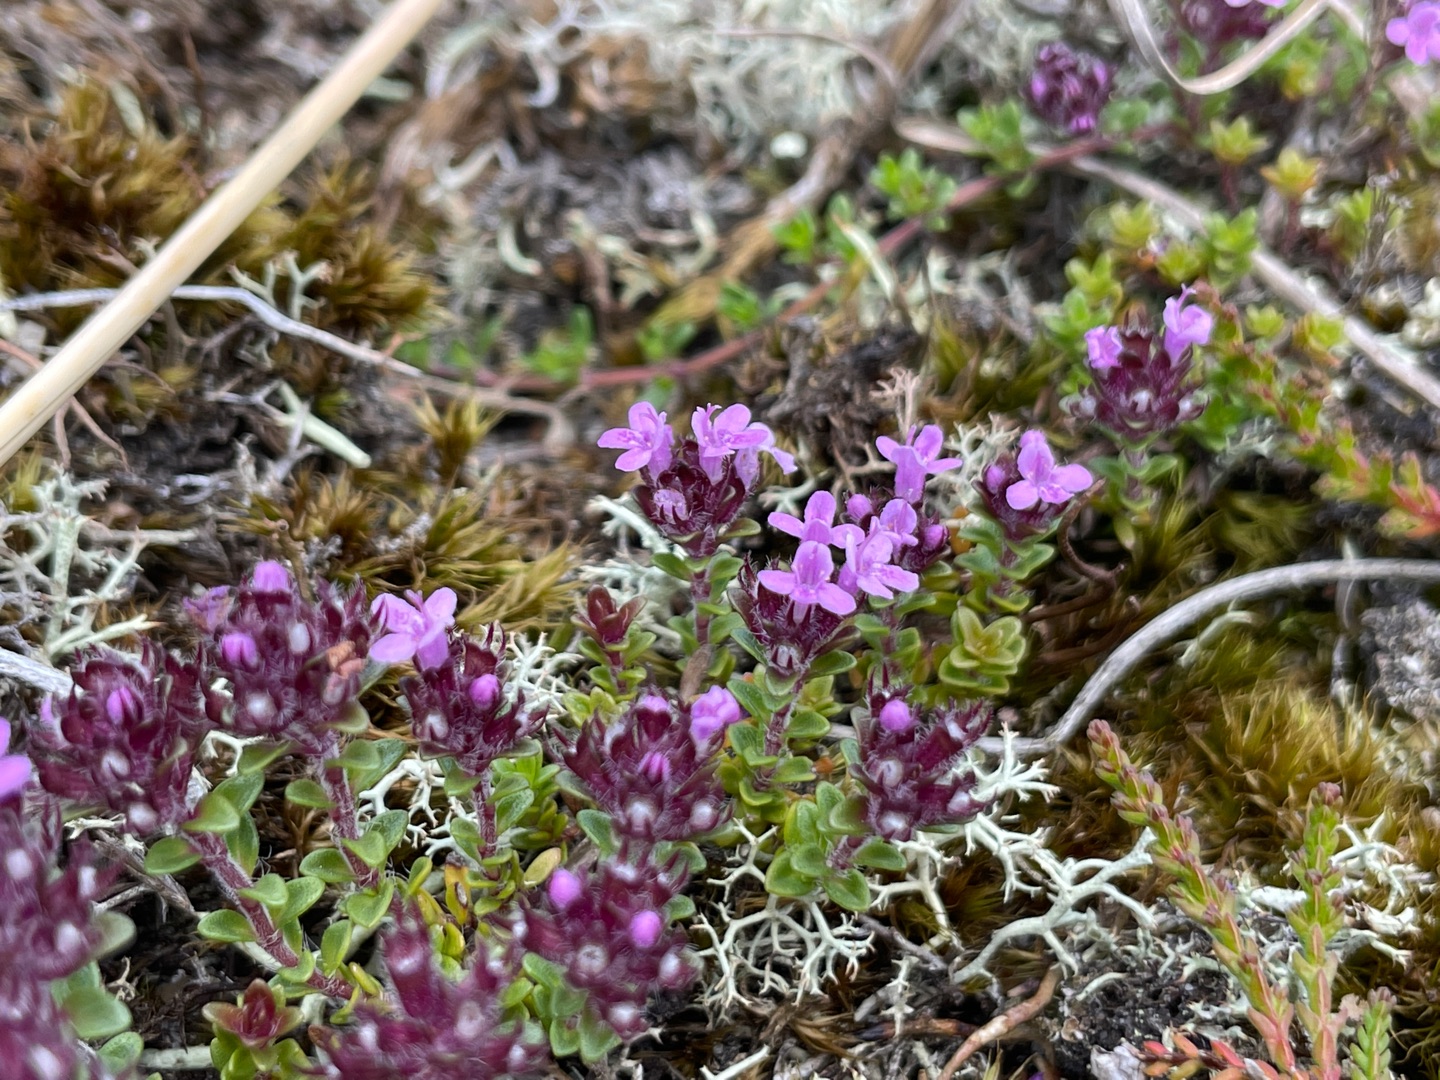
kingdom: Plantae
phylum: Tracheophyta
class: Magnoliopsida
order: Lamiales
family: Lamiaceae
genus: Thymus
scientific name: Thymus serpyllum
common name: Smalbladet timian
